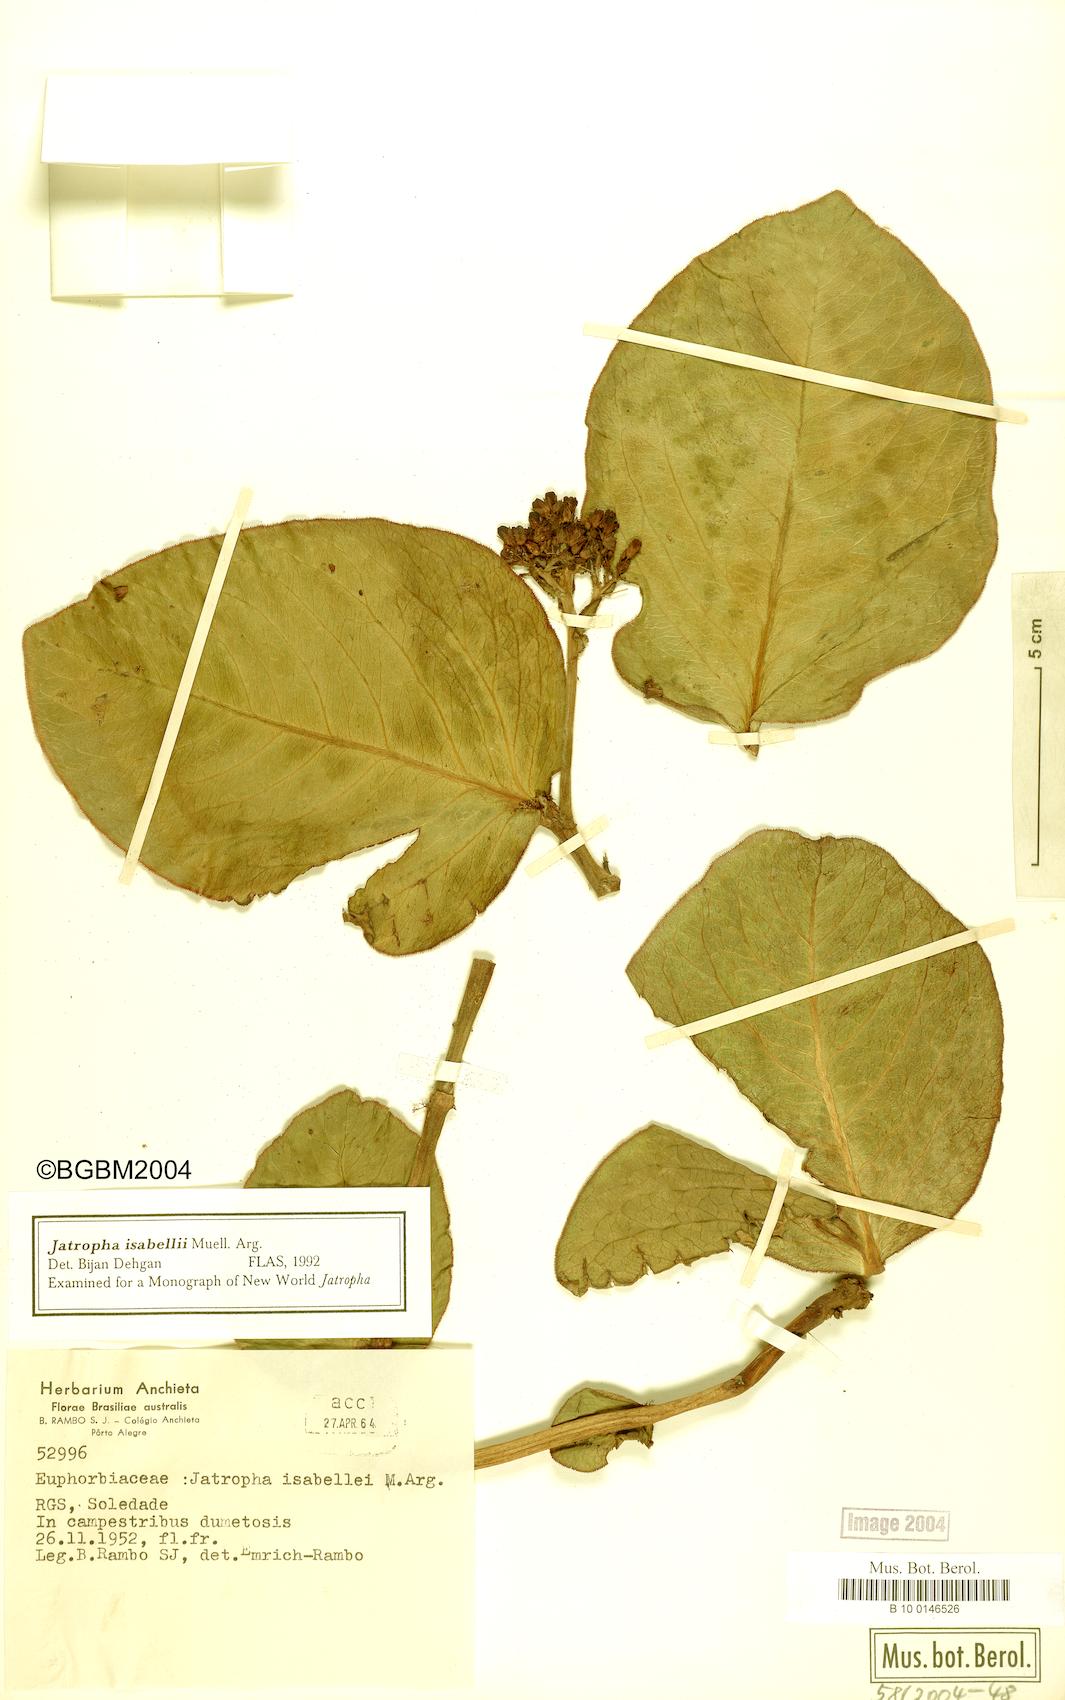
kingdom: Plantae
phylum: Tracheophyta
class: Magnoliopsida
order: Malpighiales
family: Euphorbiaceae
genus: Jatropha
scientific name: Jatropha isabellei
